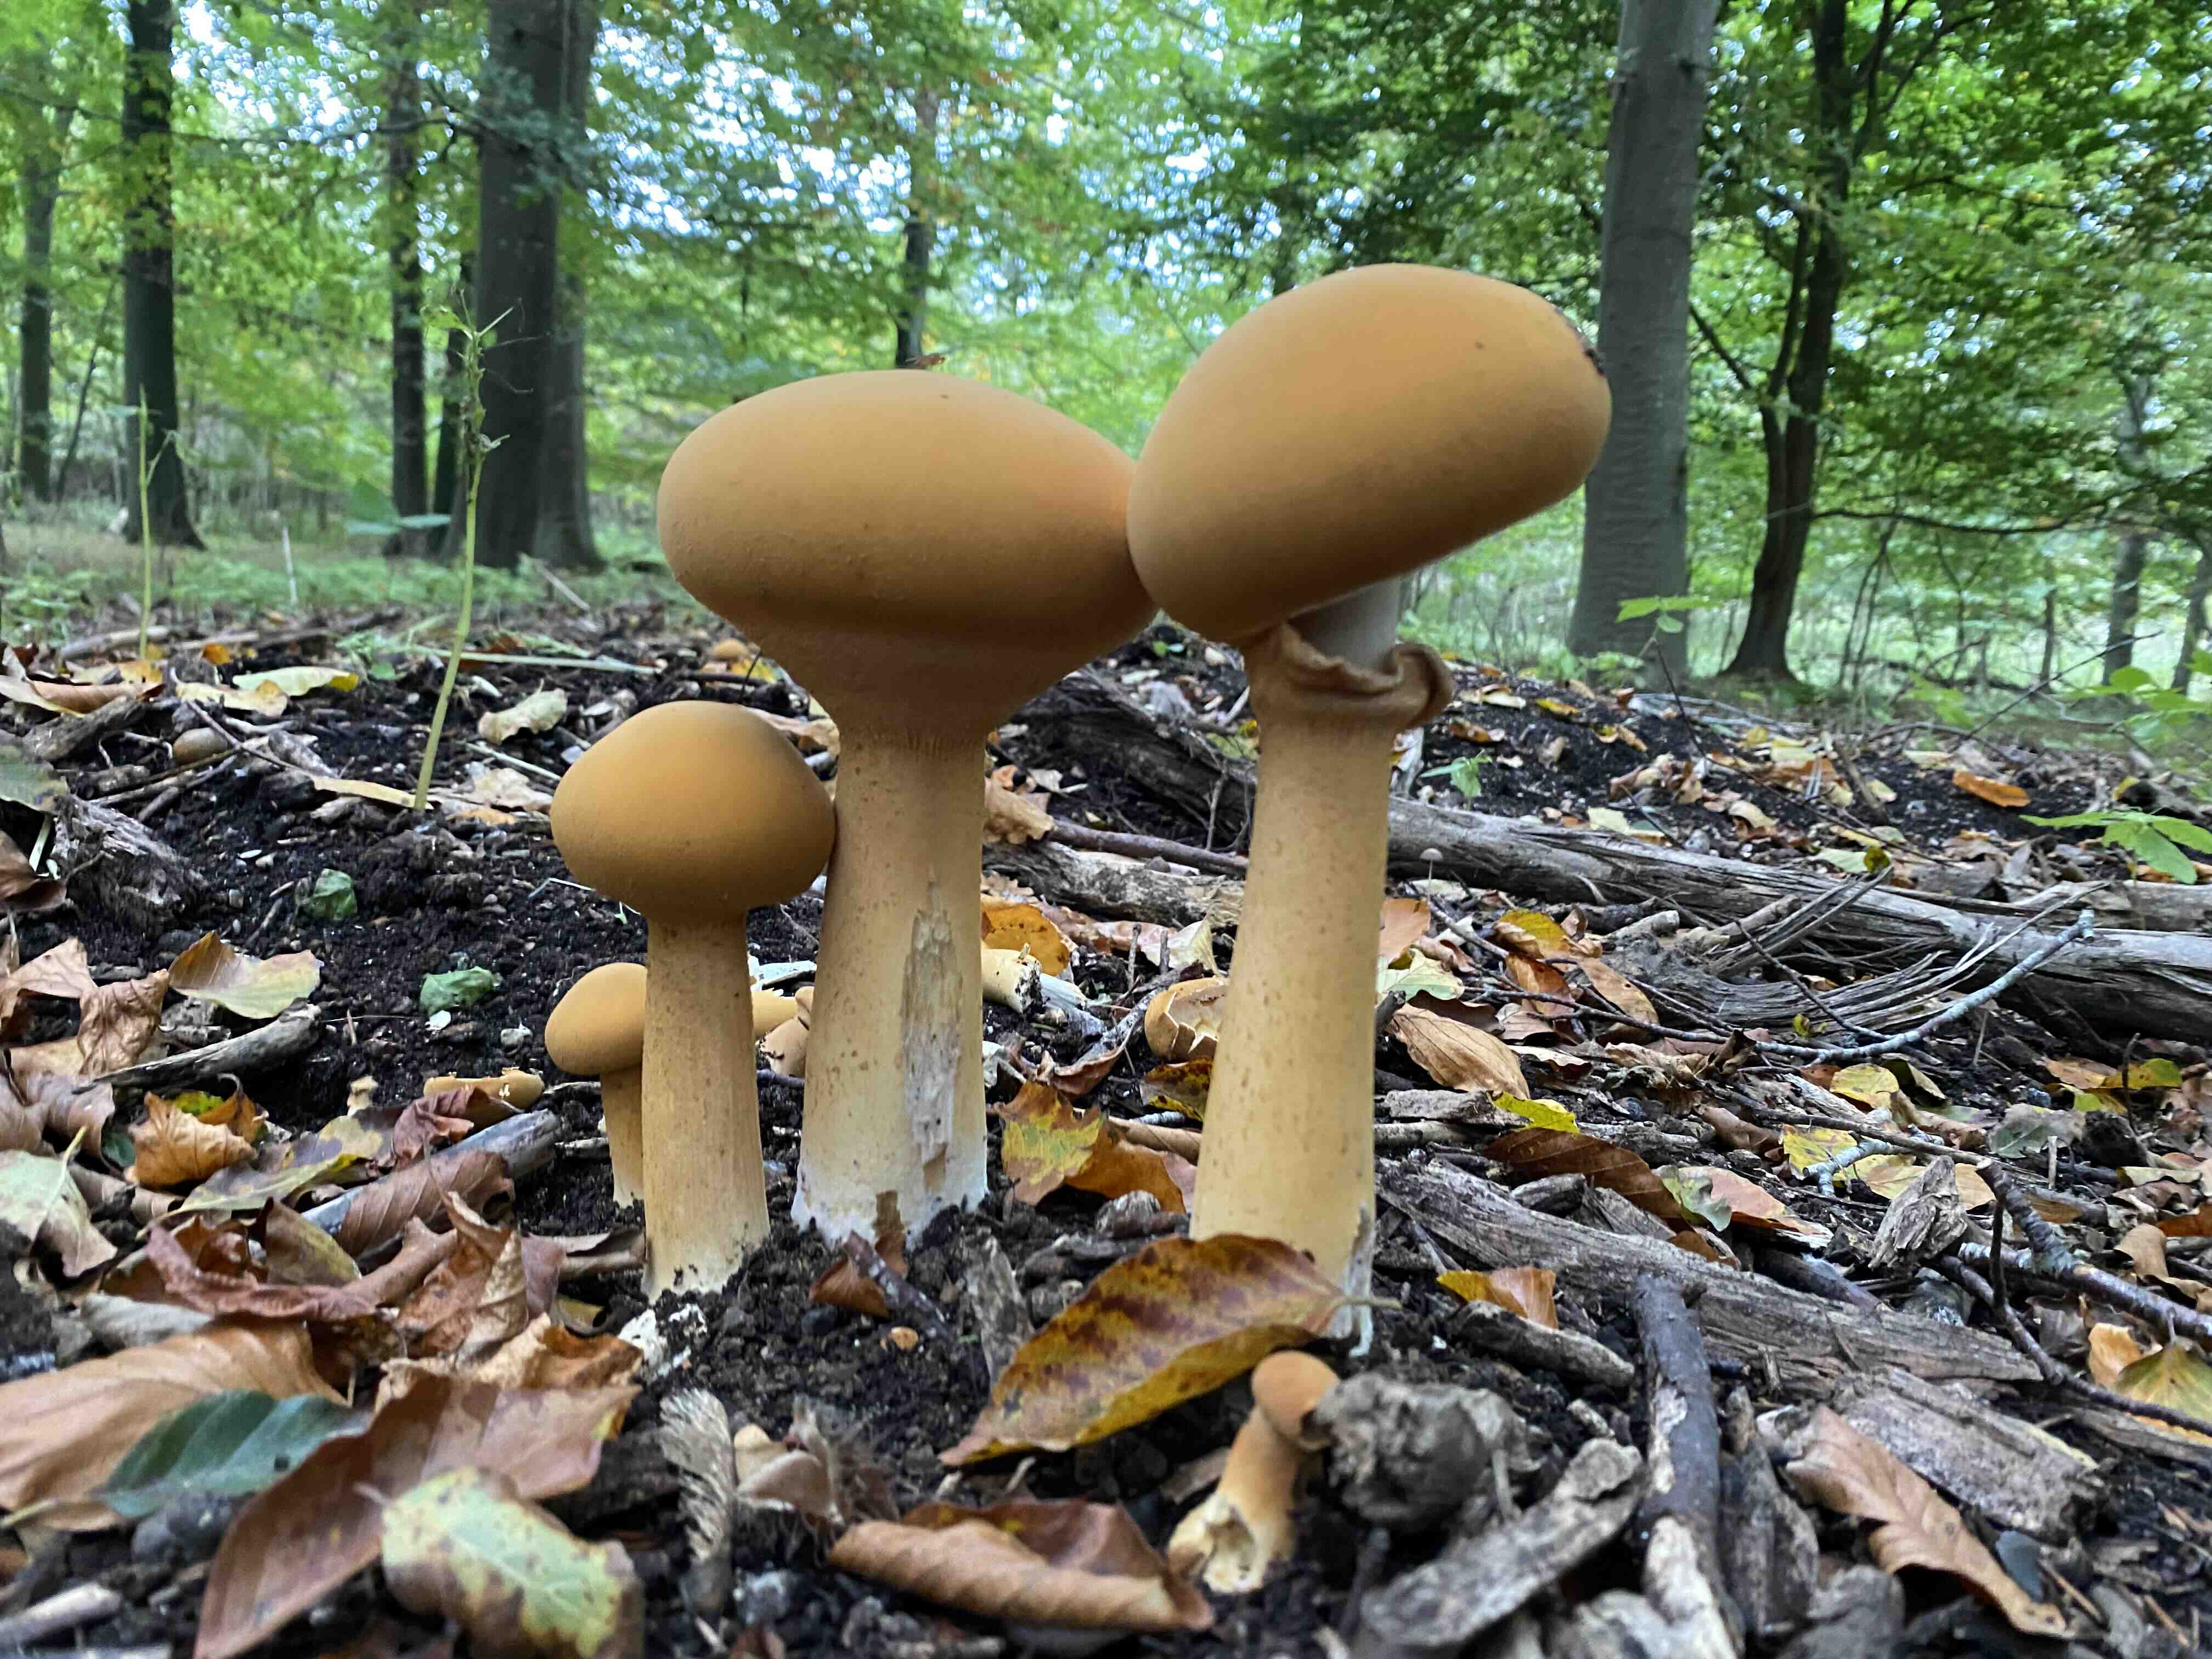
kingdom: Fungi
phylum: Basidiomycota
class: Agaricomycetes
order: Agaricales
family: Tricholomataceae
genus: Phaeolepiota
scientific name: Phaeolepiota aurea
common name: gyldenhat
